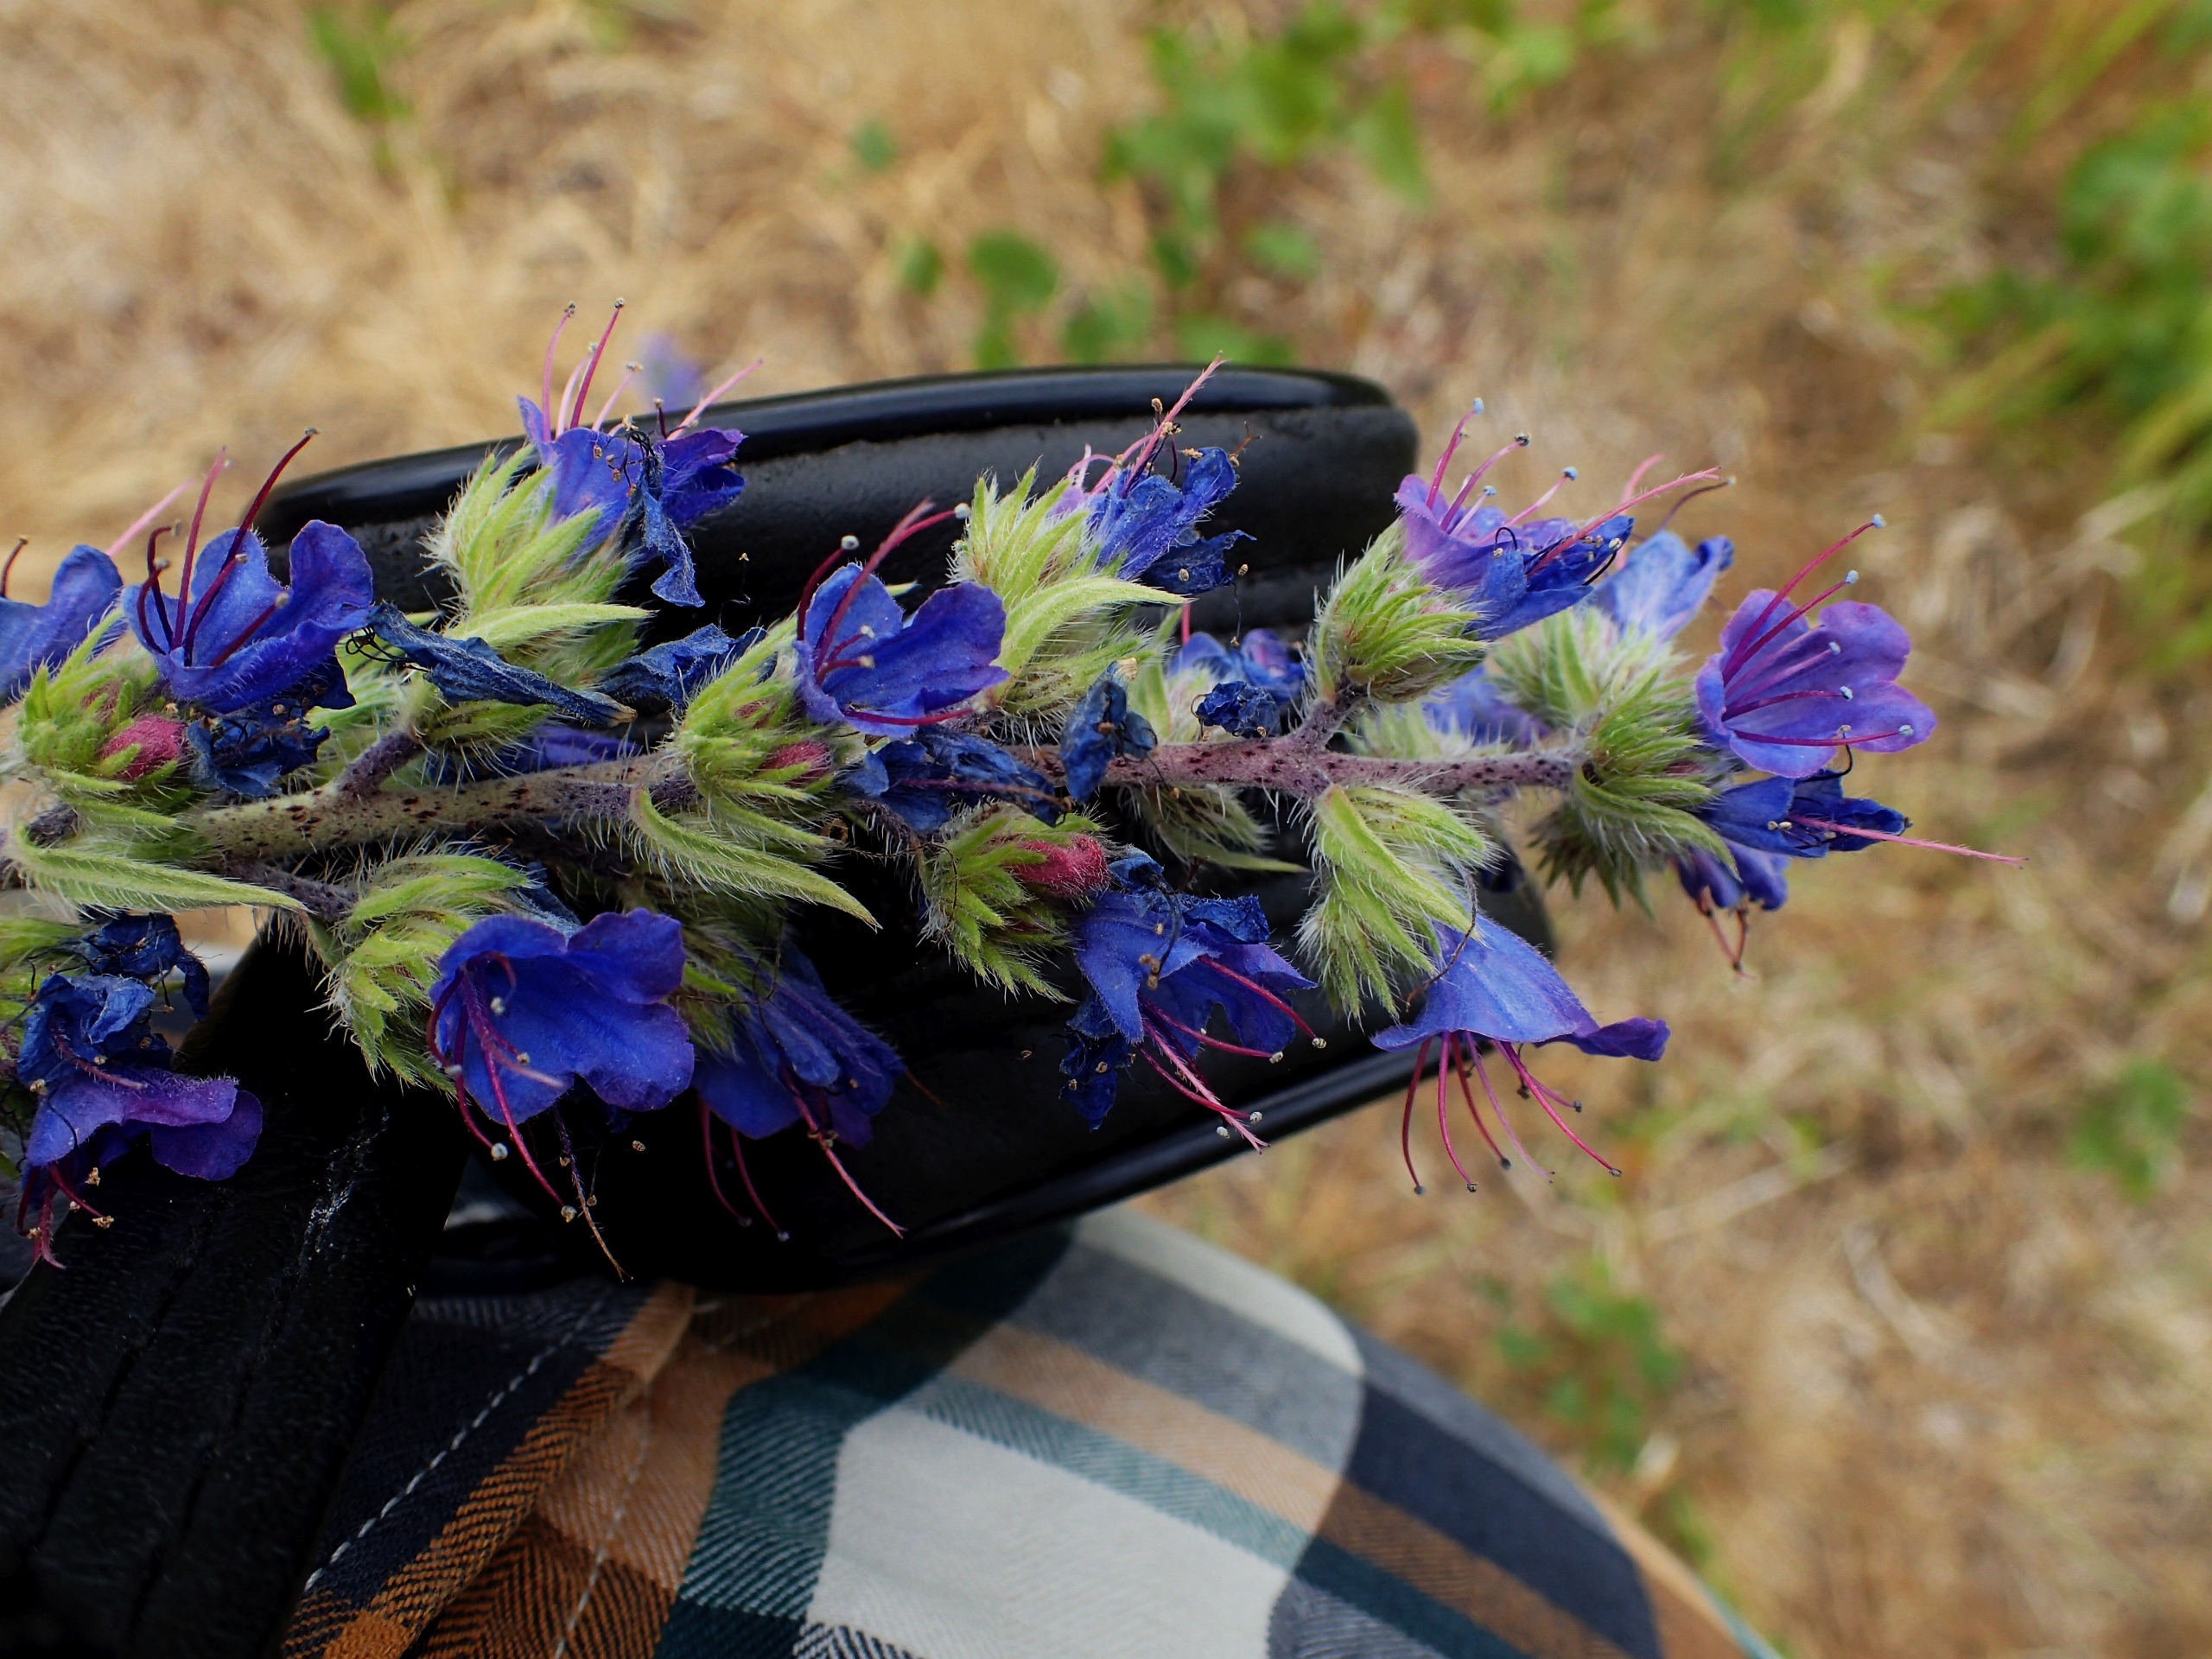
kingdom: Plantae
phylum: Tracheophyta
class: Magnoliopsida
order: Boraginales
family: Boraginaceae
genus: Echium
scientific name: Echium vulgare
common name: Slangehoved
